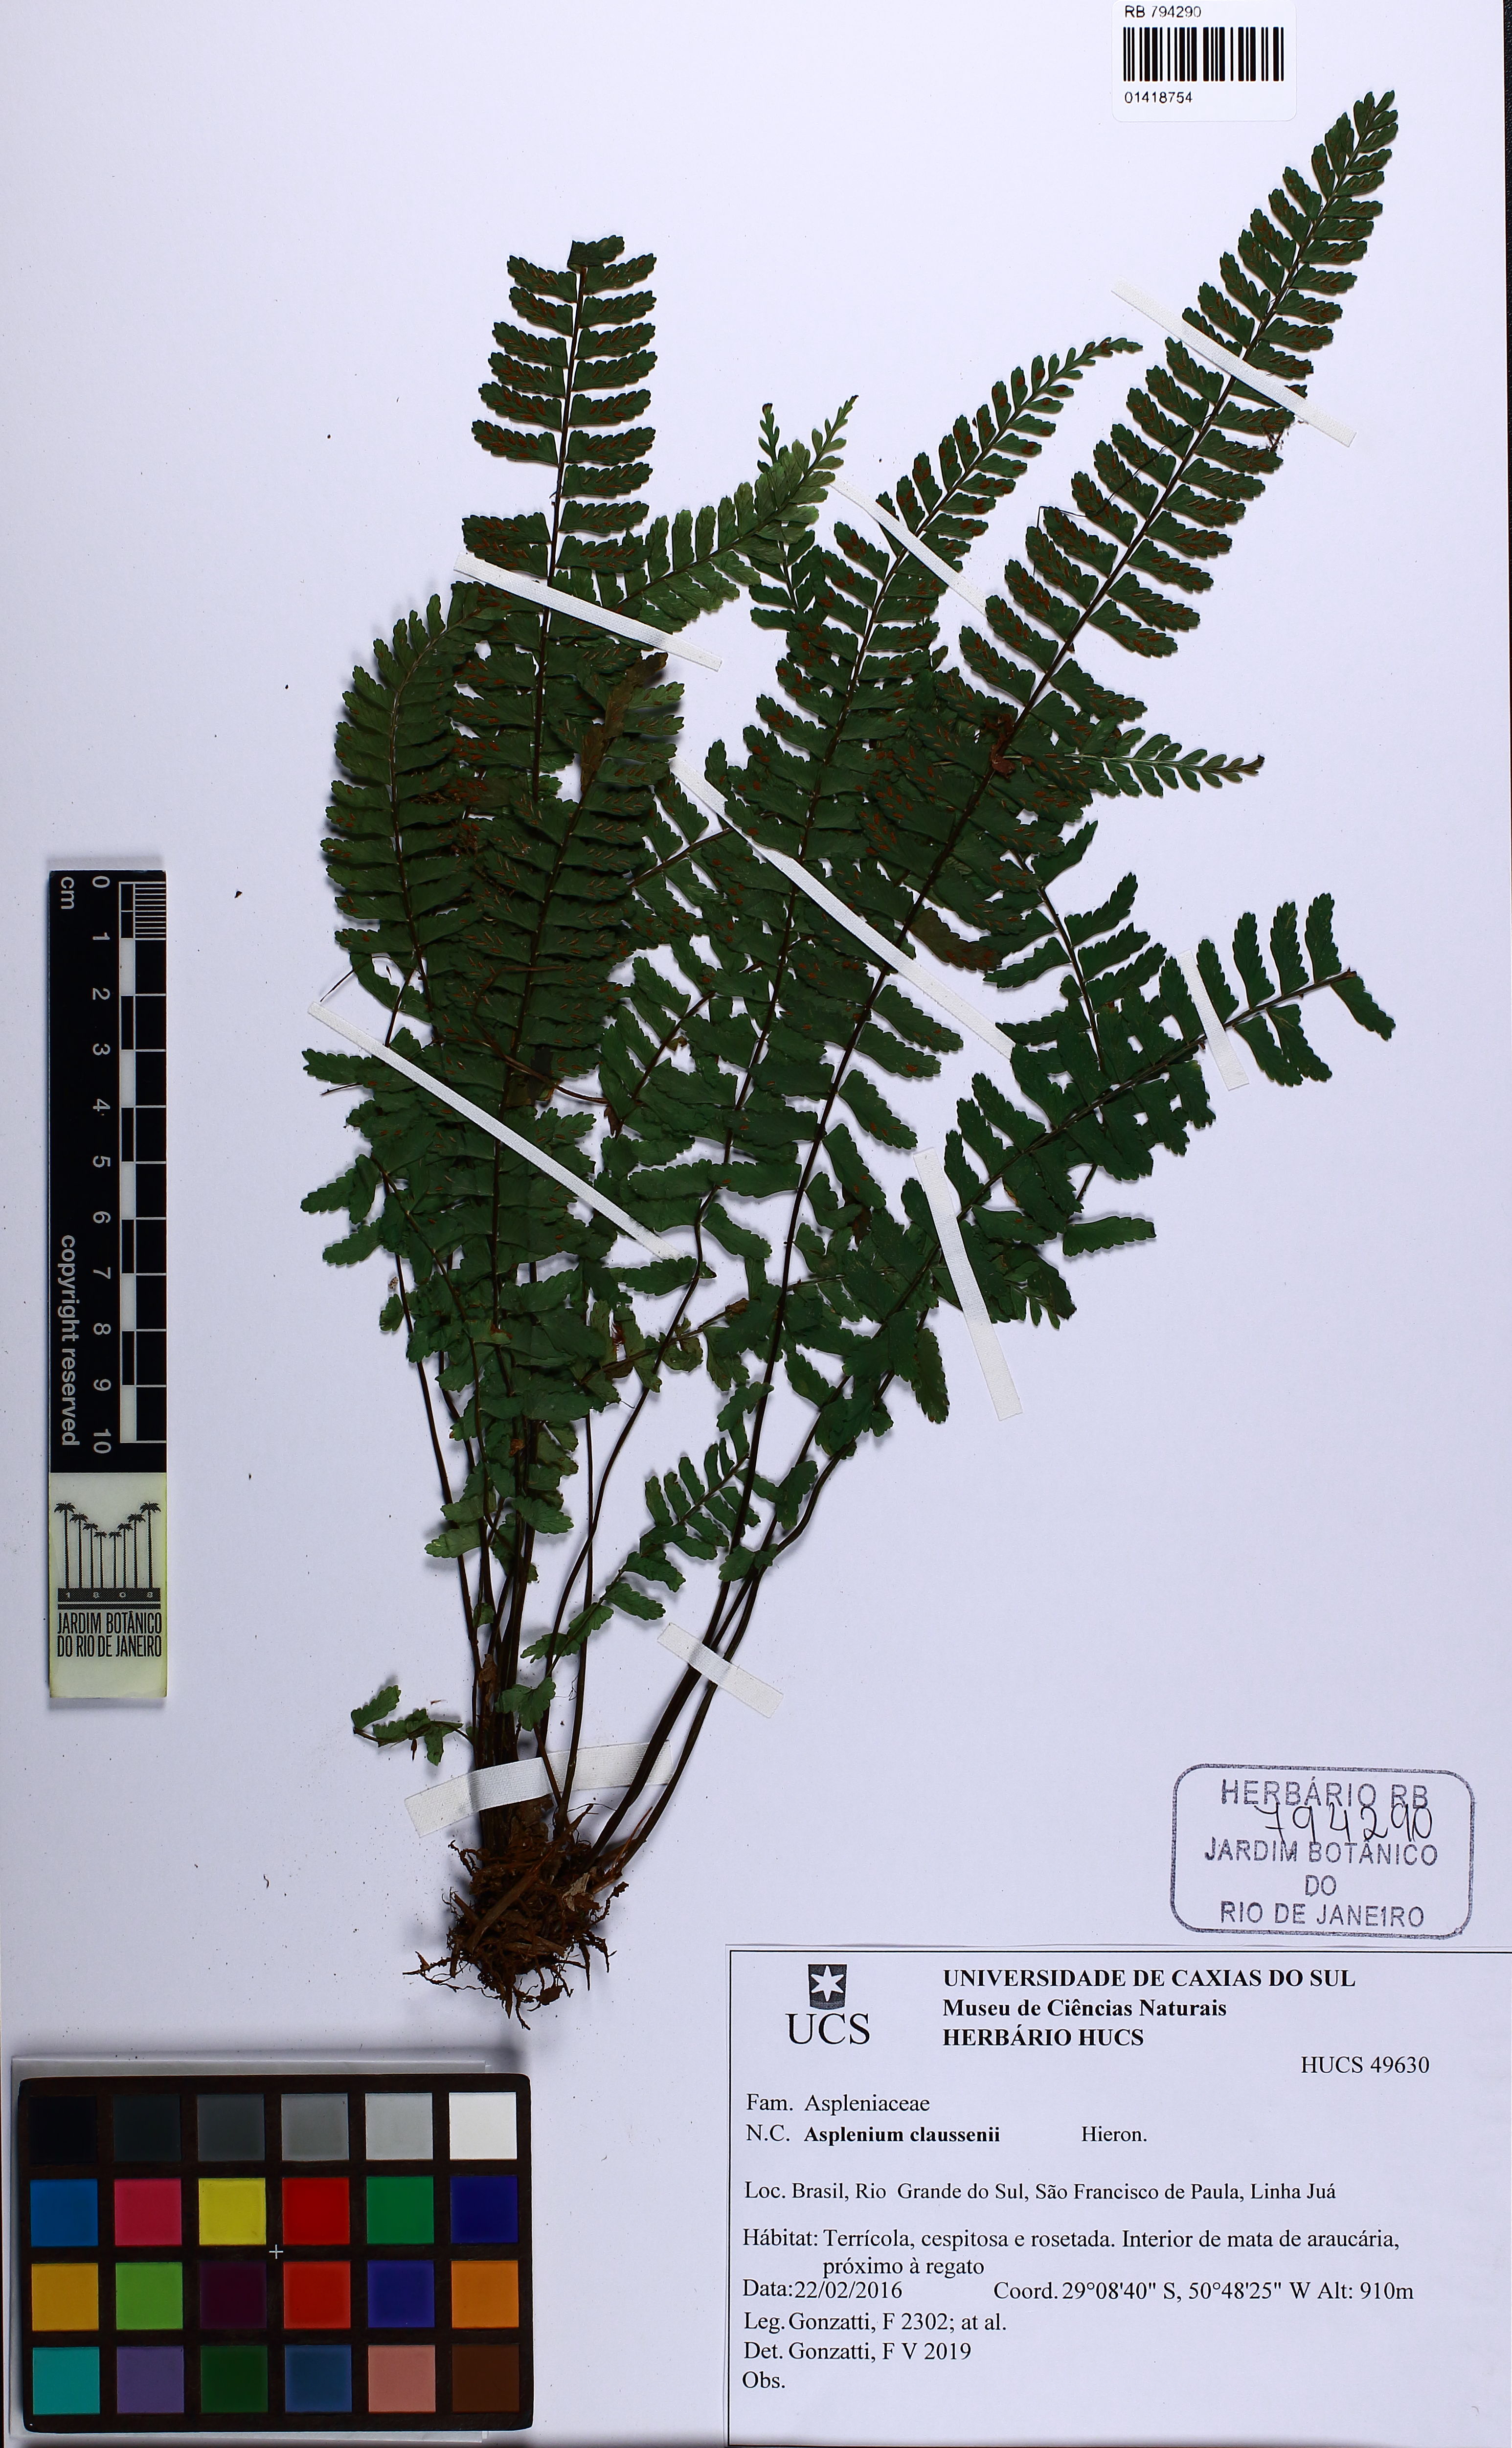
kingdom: Plantae
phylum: Tracheophyta
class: Polypodiopsida
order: Polypodiales
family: Aspleniaceae
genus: Asplenium
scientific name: Asplenium claussenii
